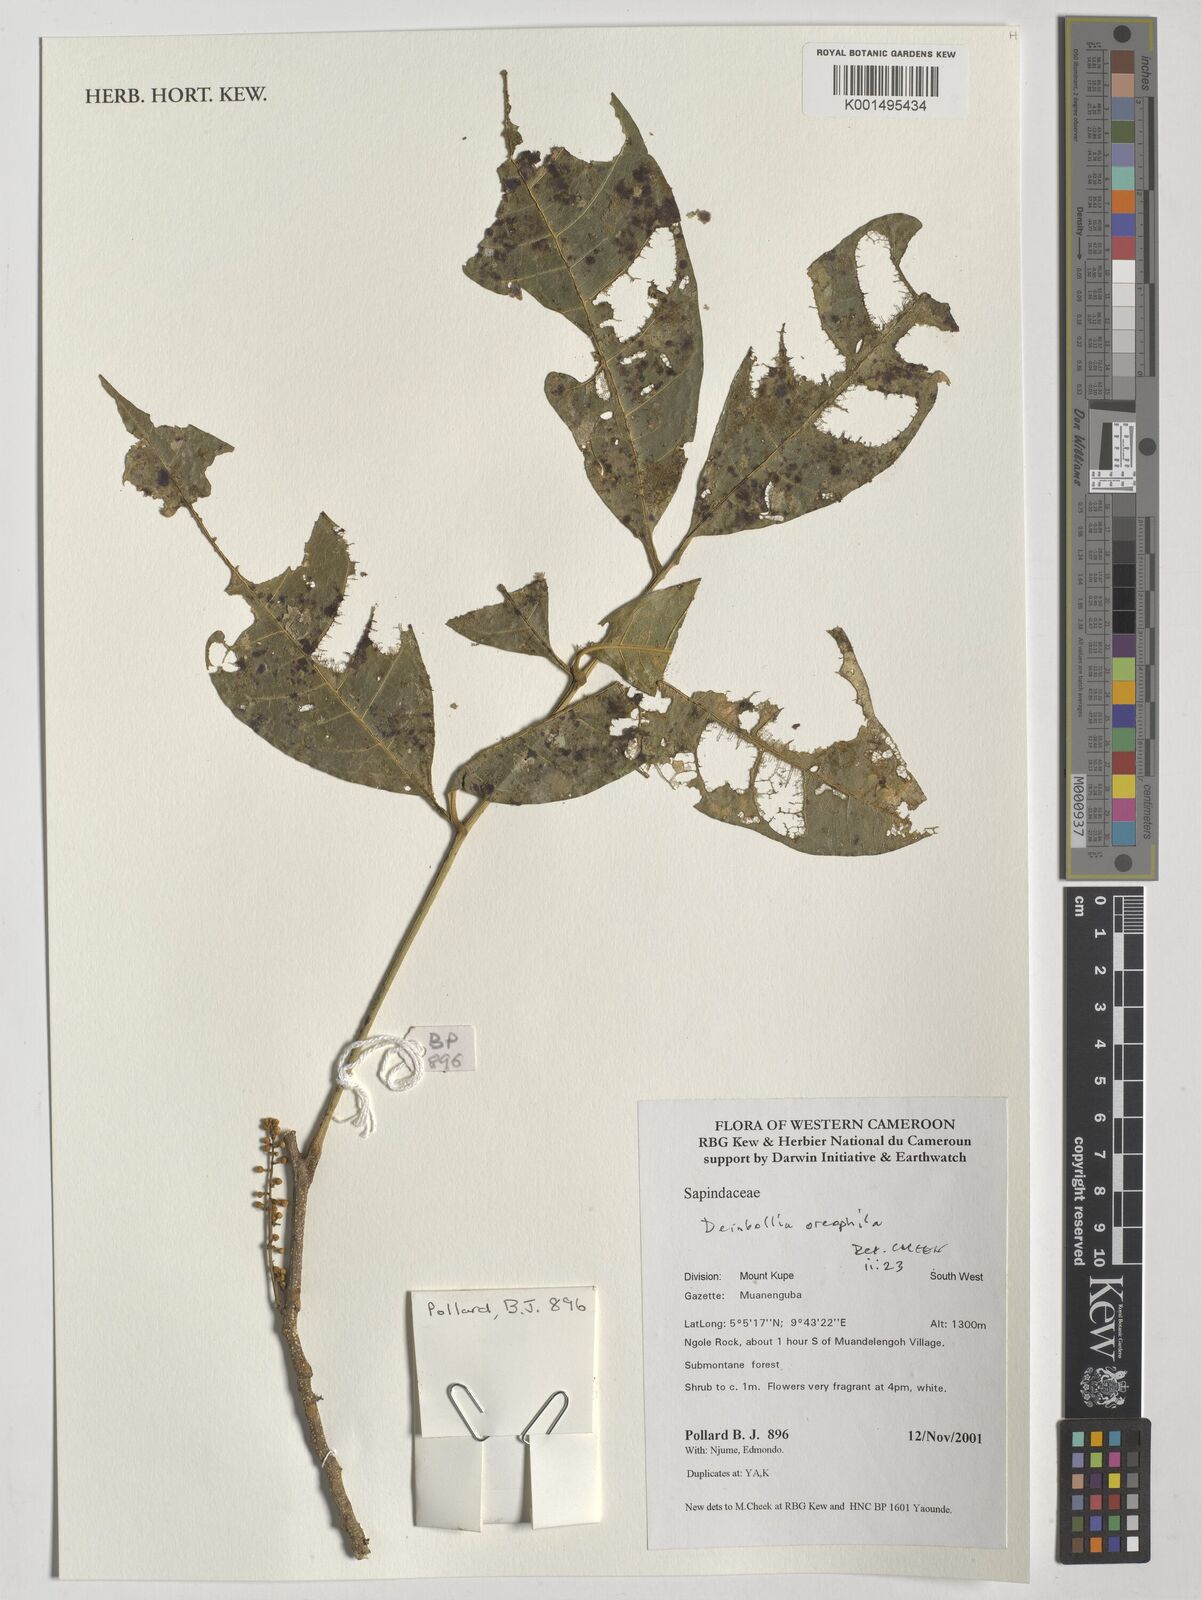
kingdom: Plantae
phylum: Tracheophyta
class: Magnoliopsida
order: Sapindales
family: Sapindaceae
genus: Deinbollia
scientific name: Deinbollia oreophila
